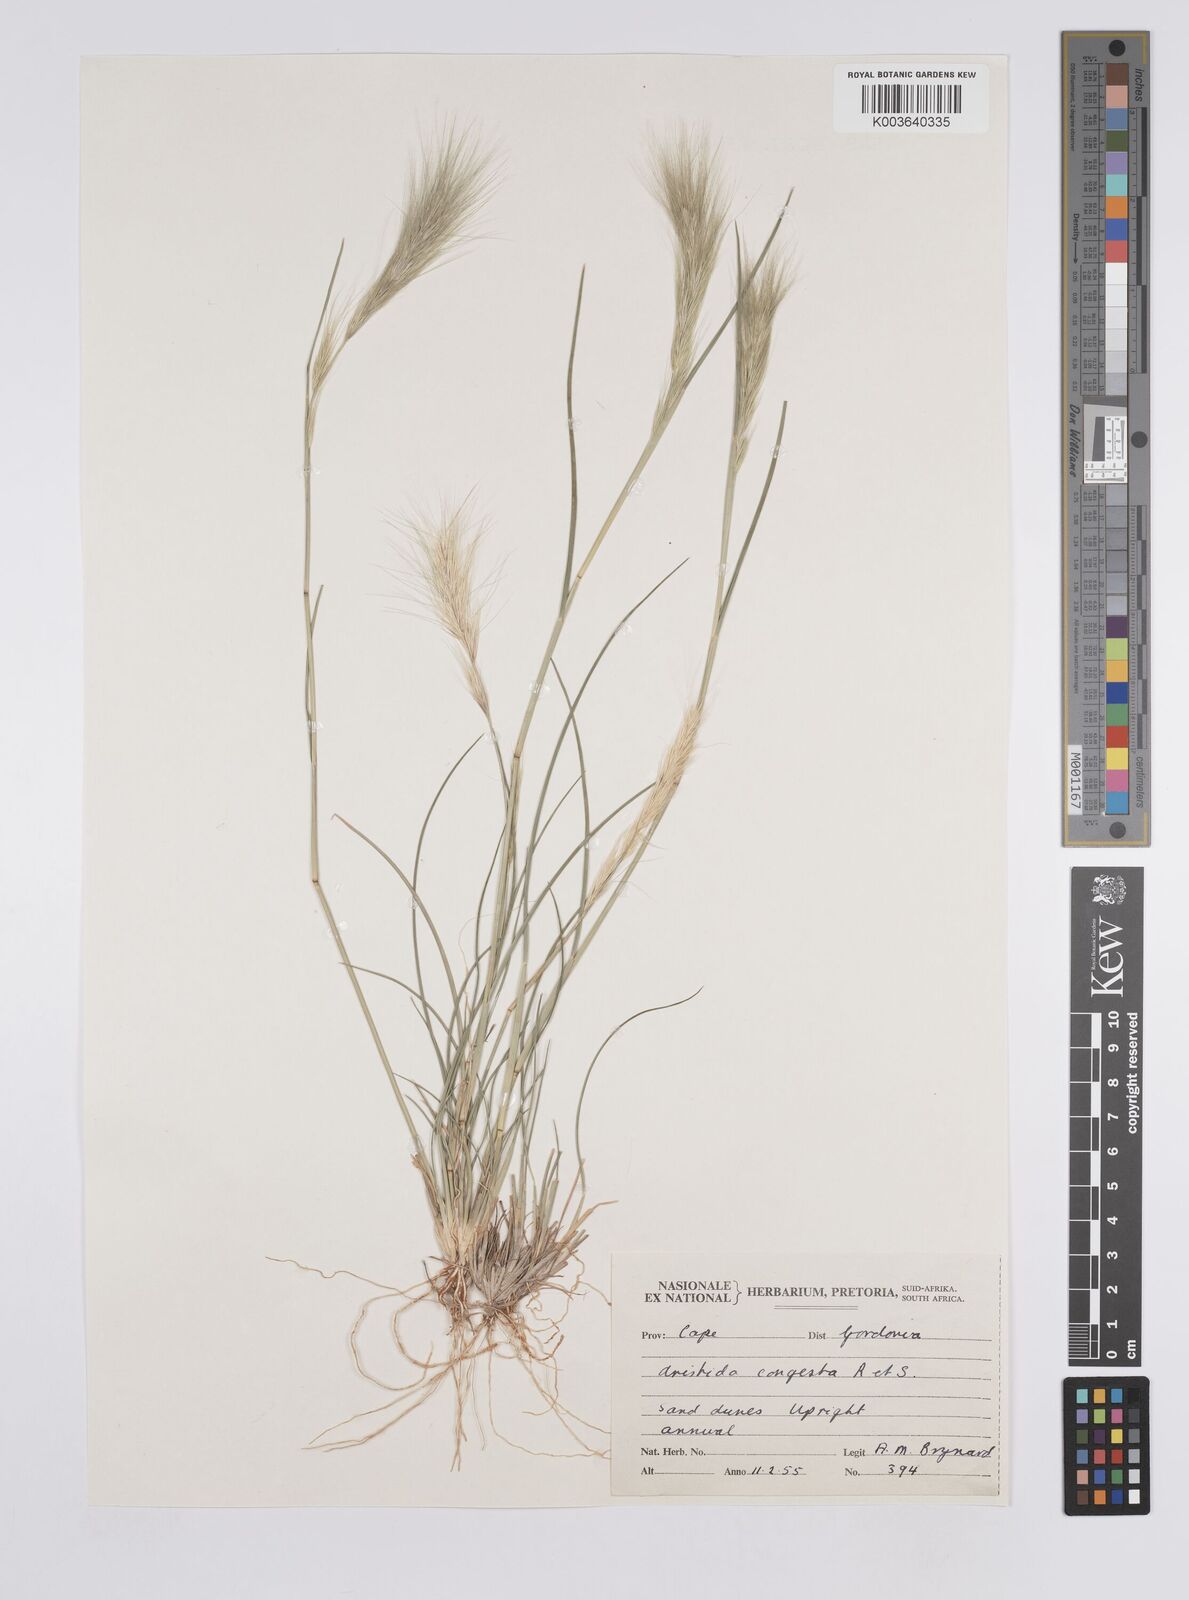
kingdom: Plantae
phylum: Tracheophyta
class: Liliopsida
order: Poales
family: Poaceae
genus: Aristida
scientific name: Aristida congesta
